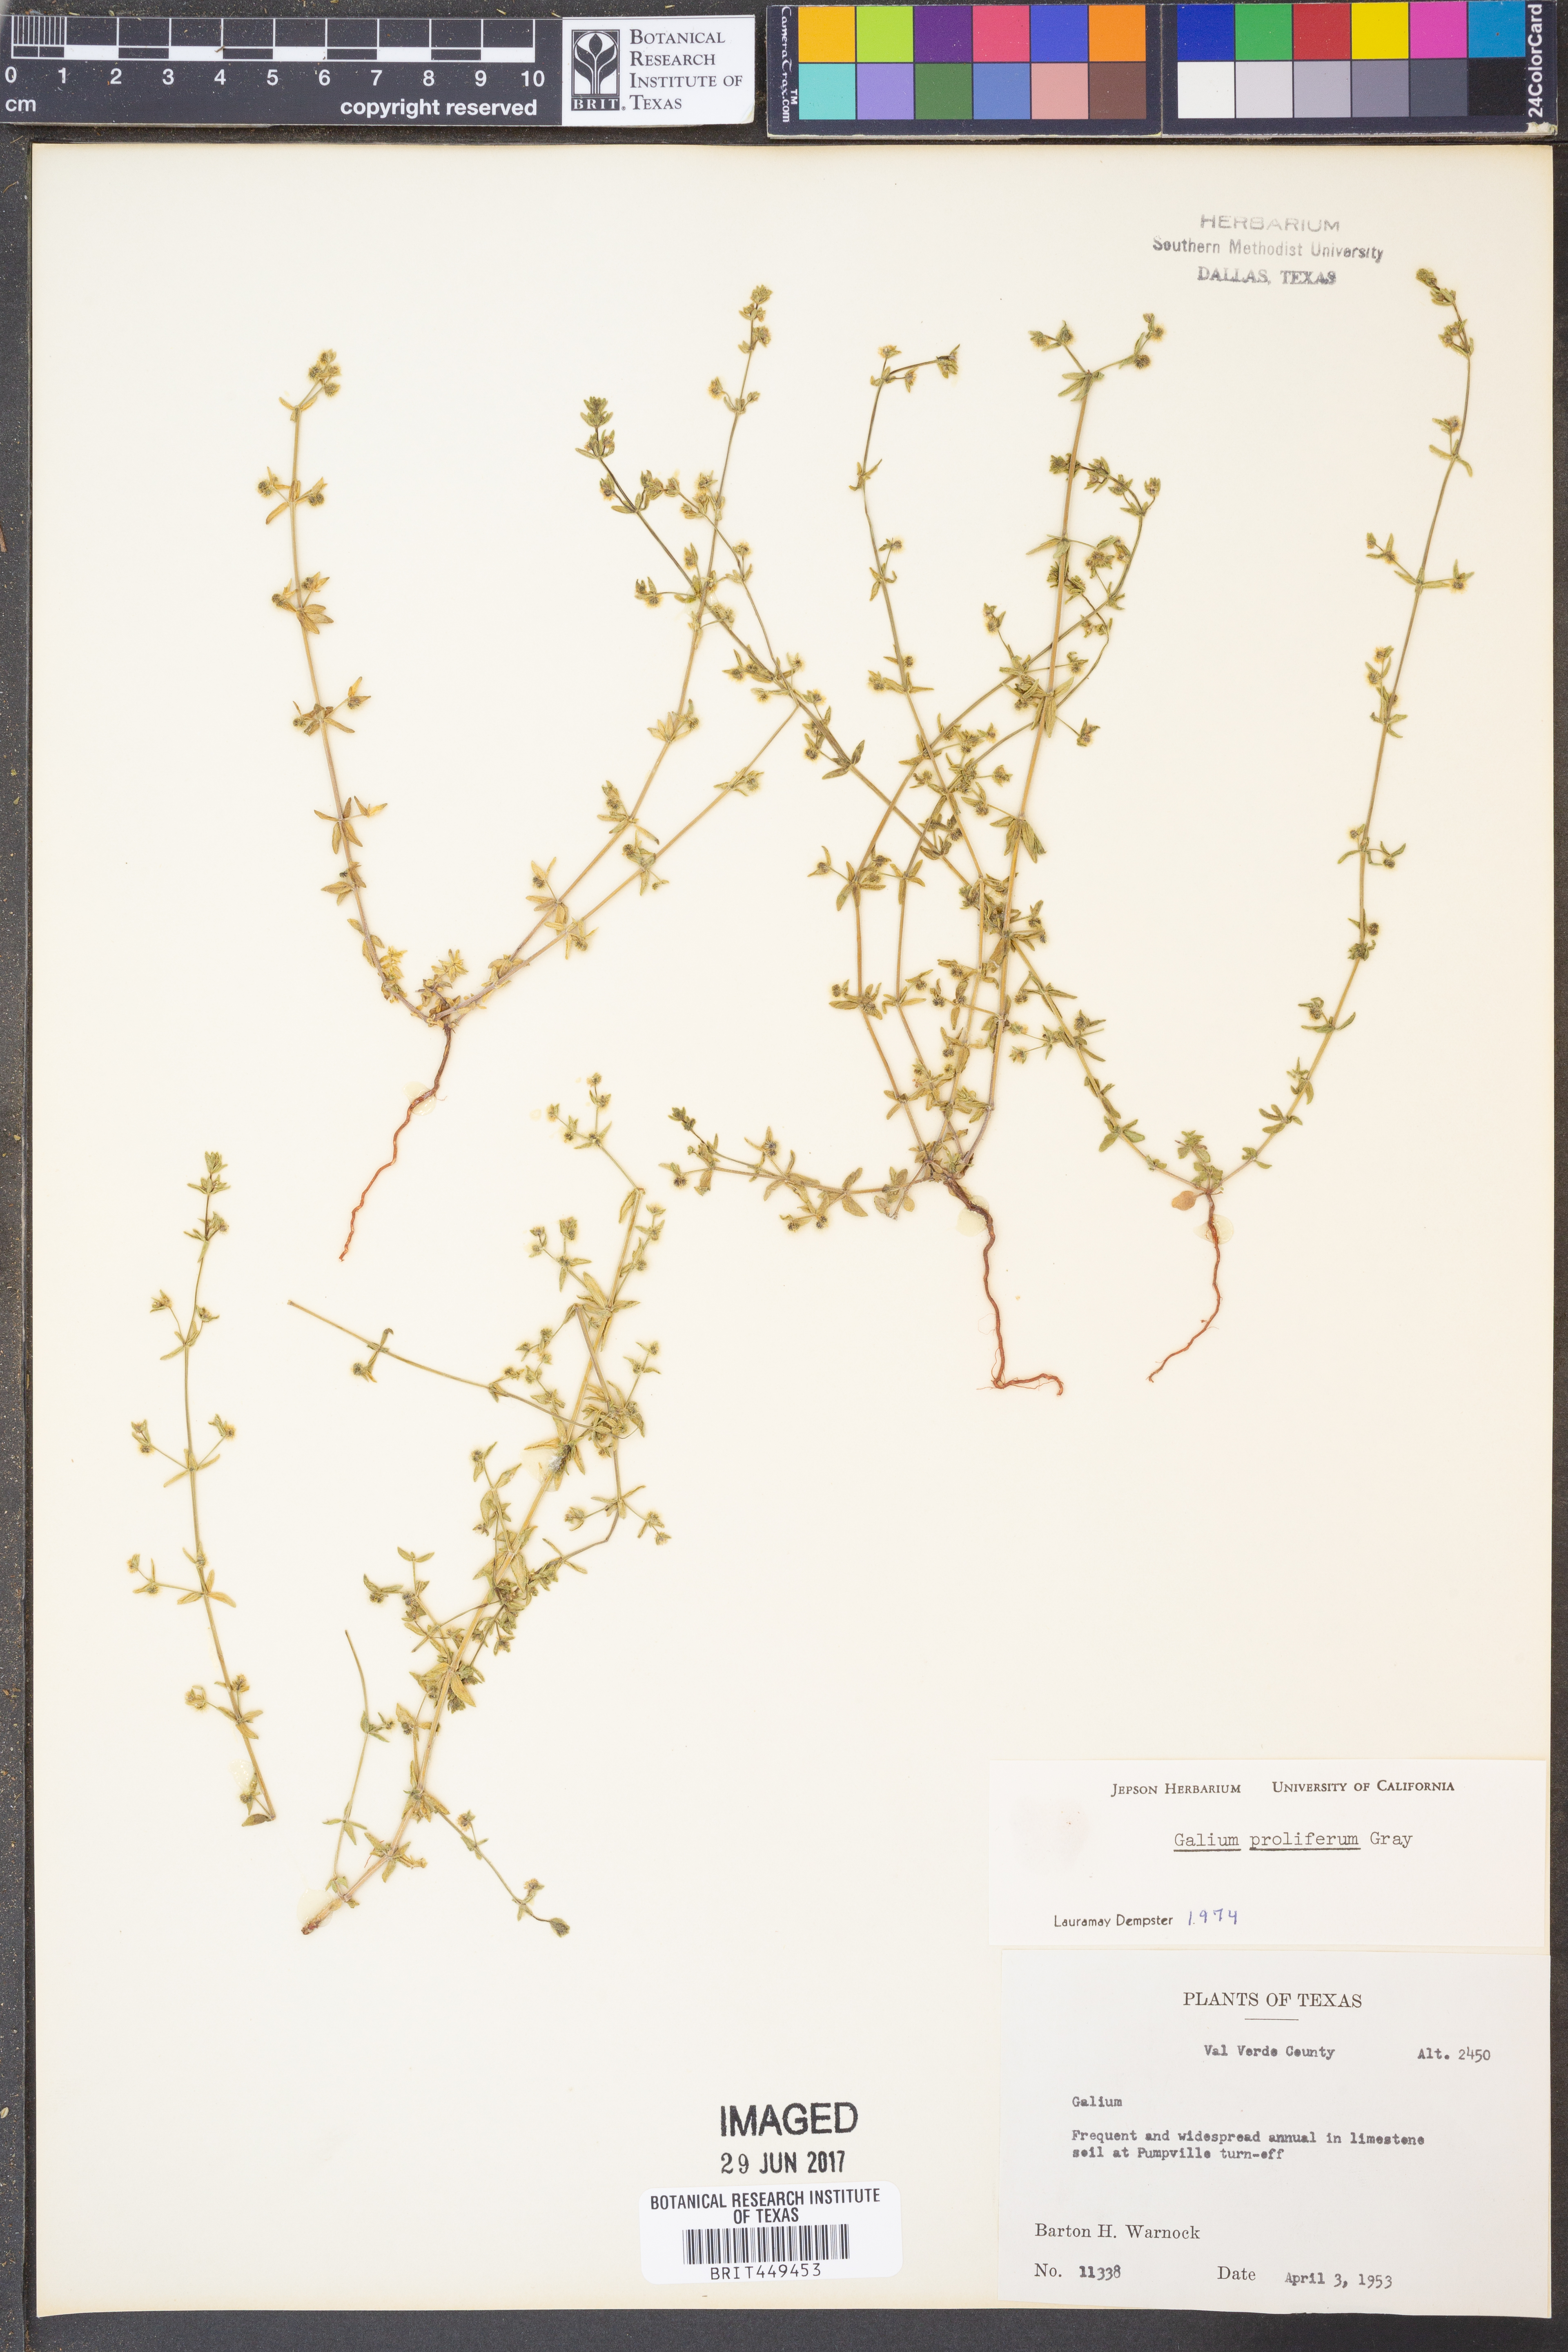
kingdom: Plantae
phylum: Tracheophyta
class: Magnoliopsida
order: Gentianales
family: Rubiaceae
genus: Galium
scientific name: Galium proliferum
